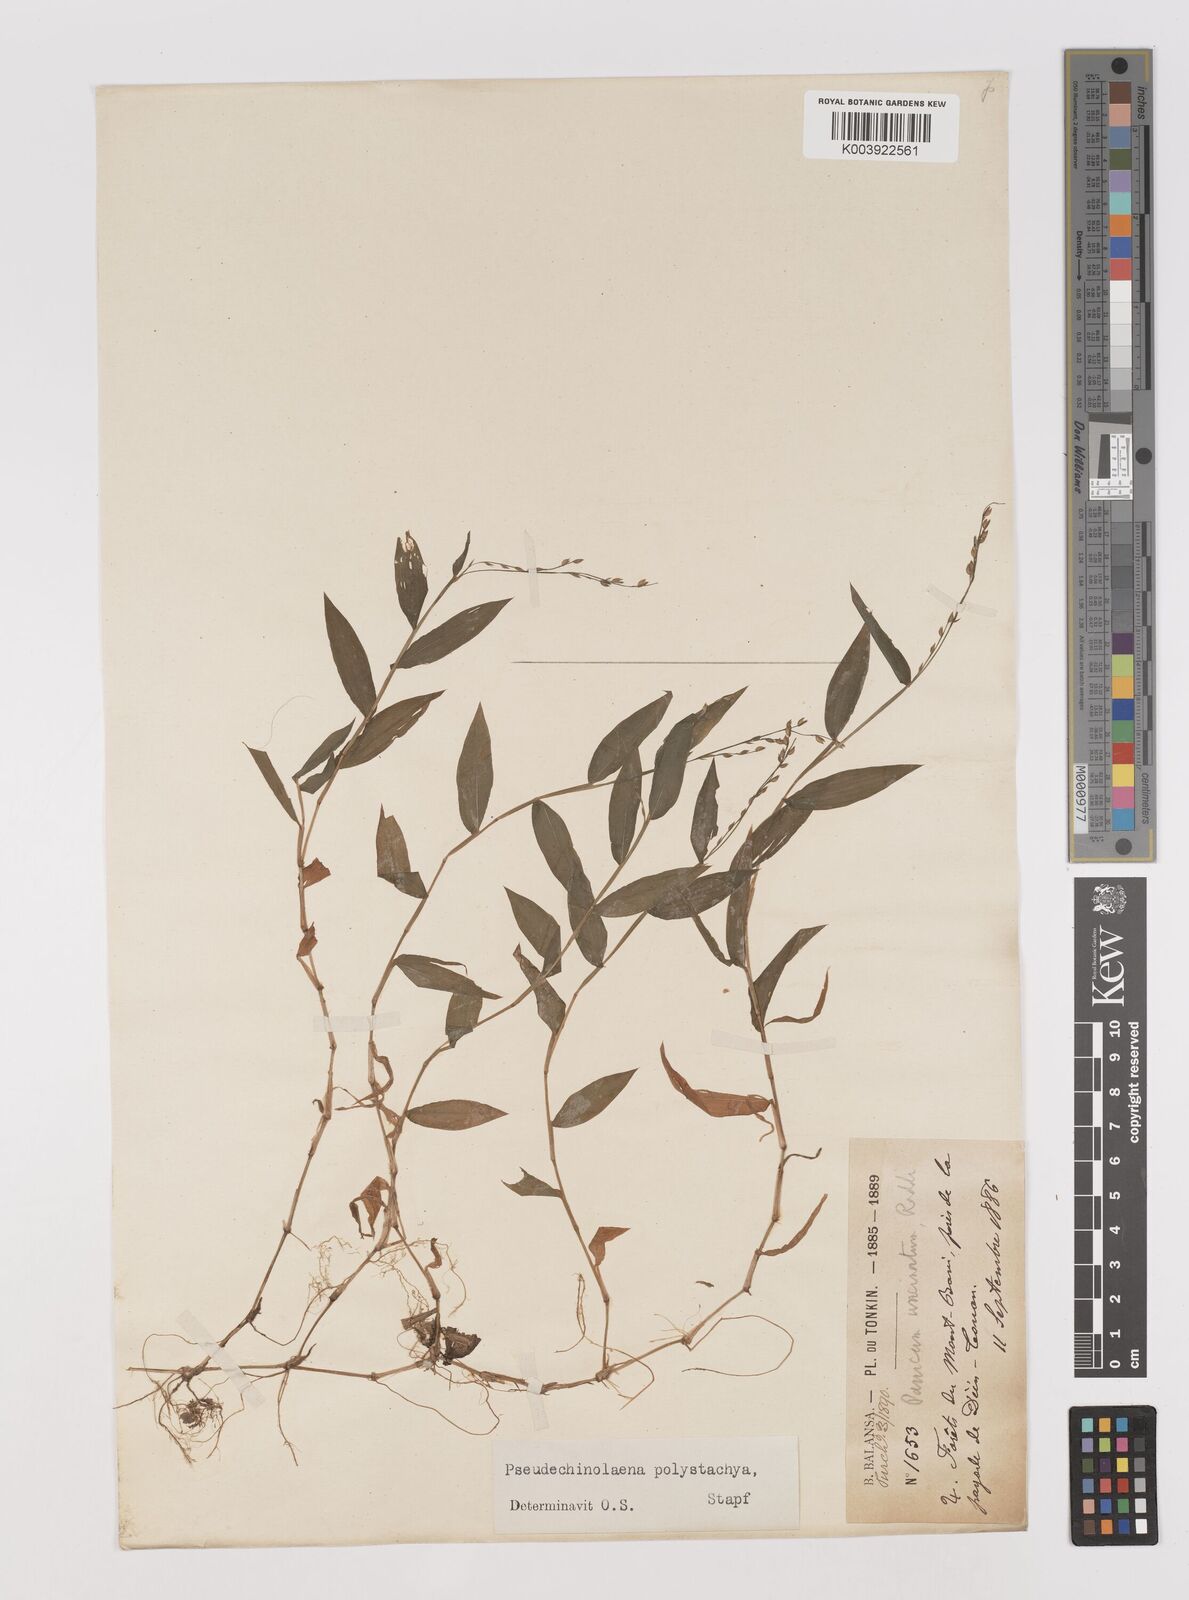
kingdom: Plantae
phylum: Tracheophyta
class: Liliopsida
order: Poales
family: Poaceae
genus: Pseudechinolaena
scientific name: Pseudechinolaena polystachya
